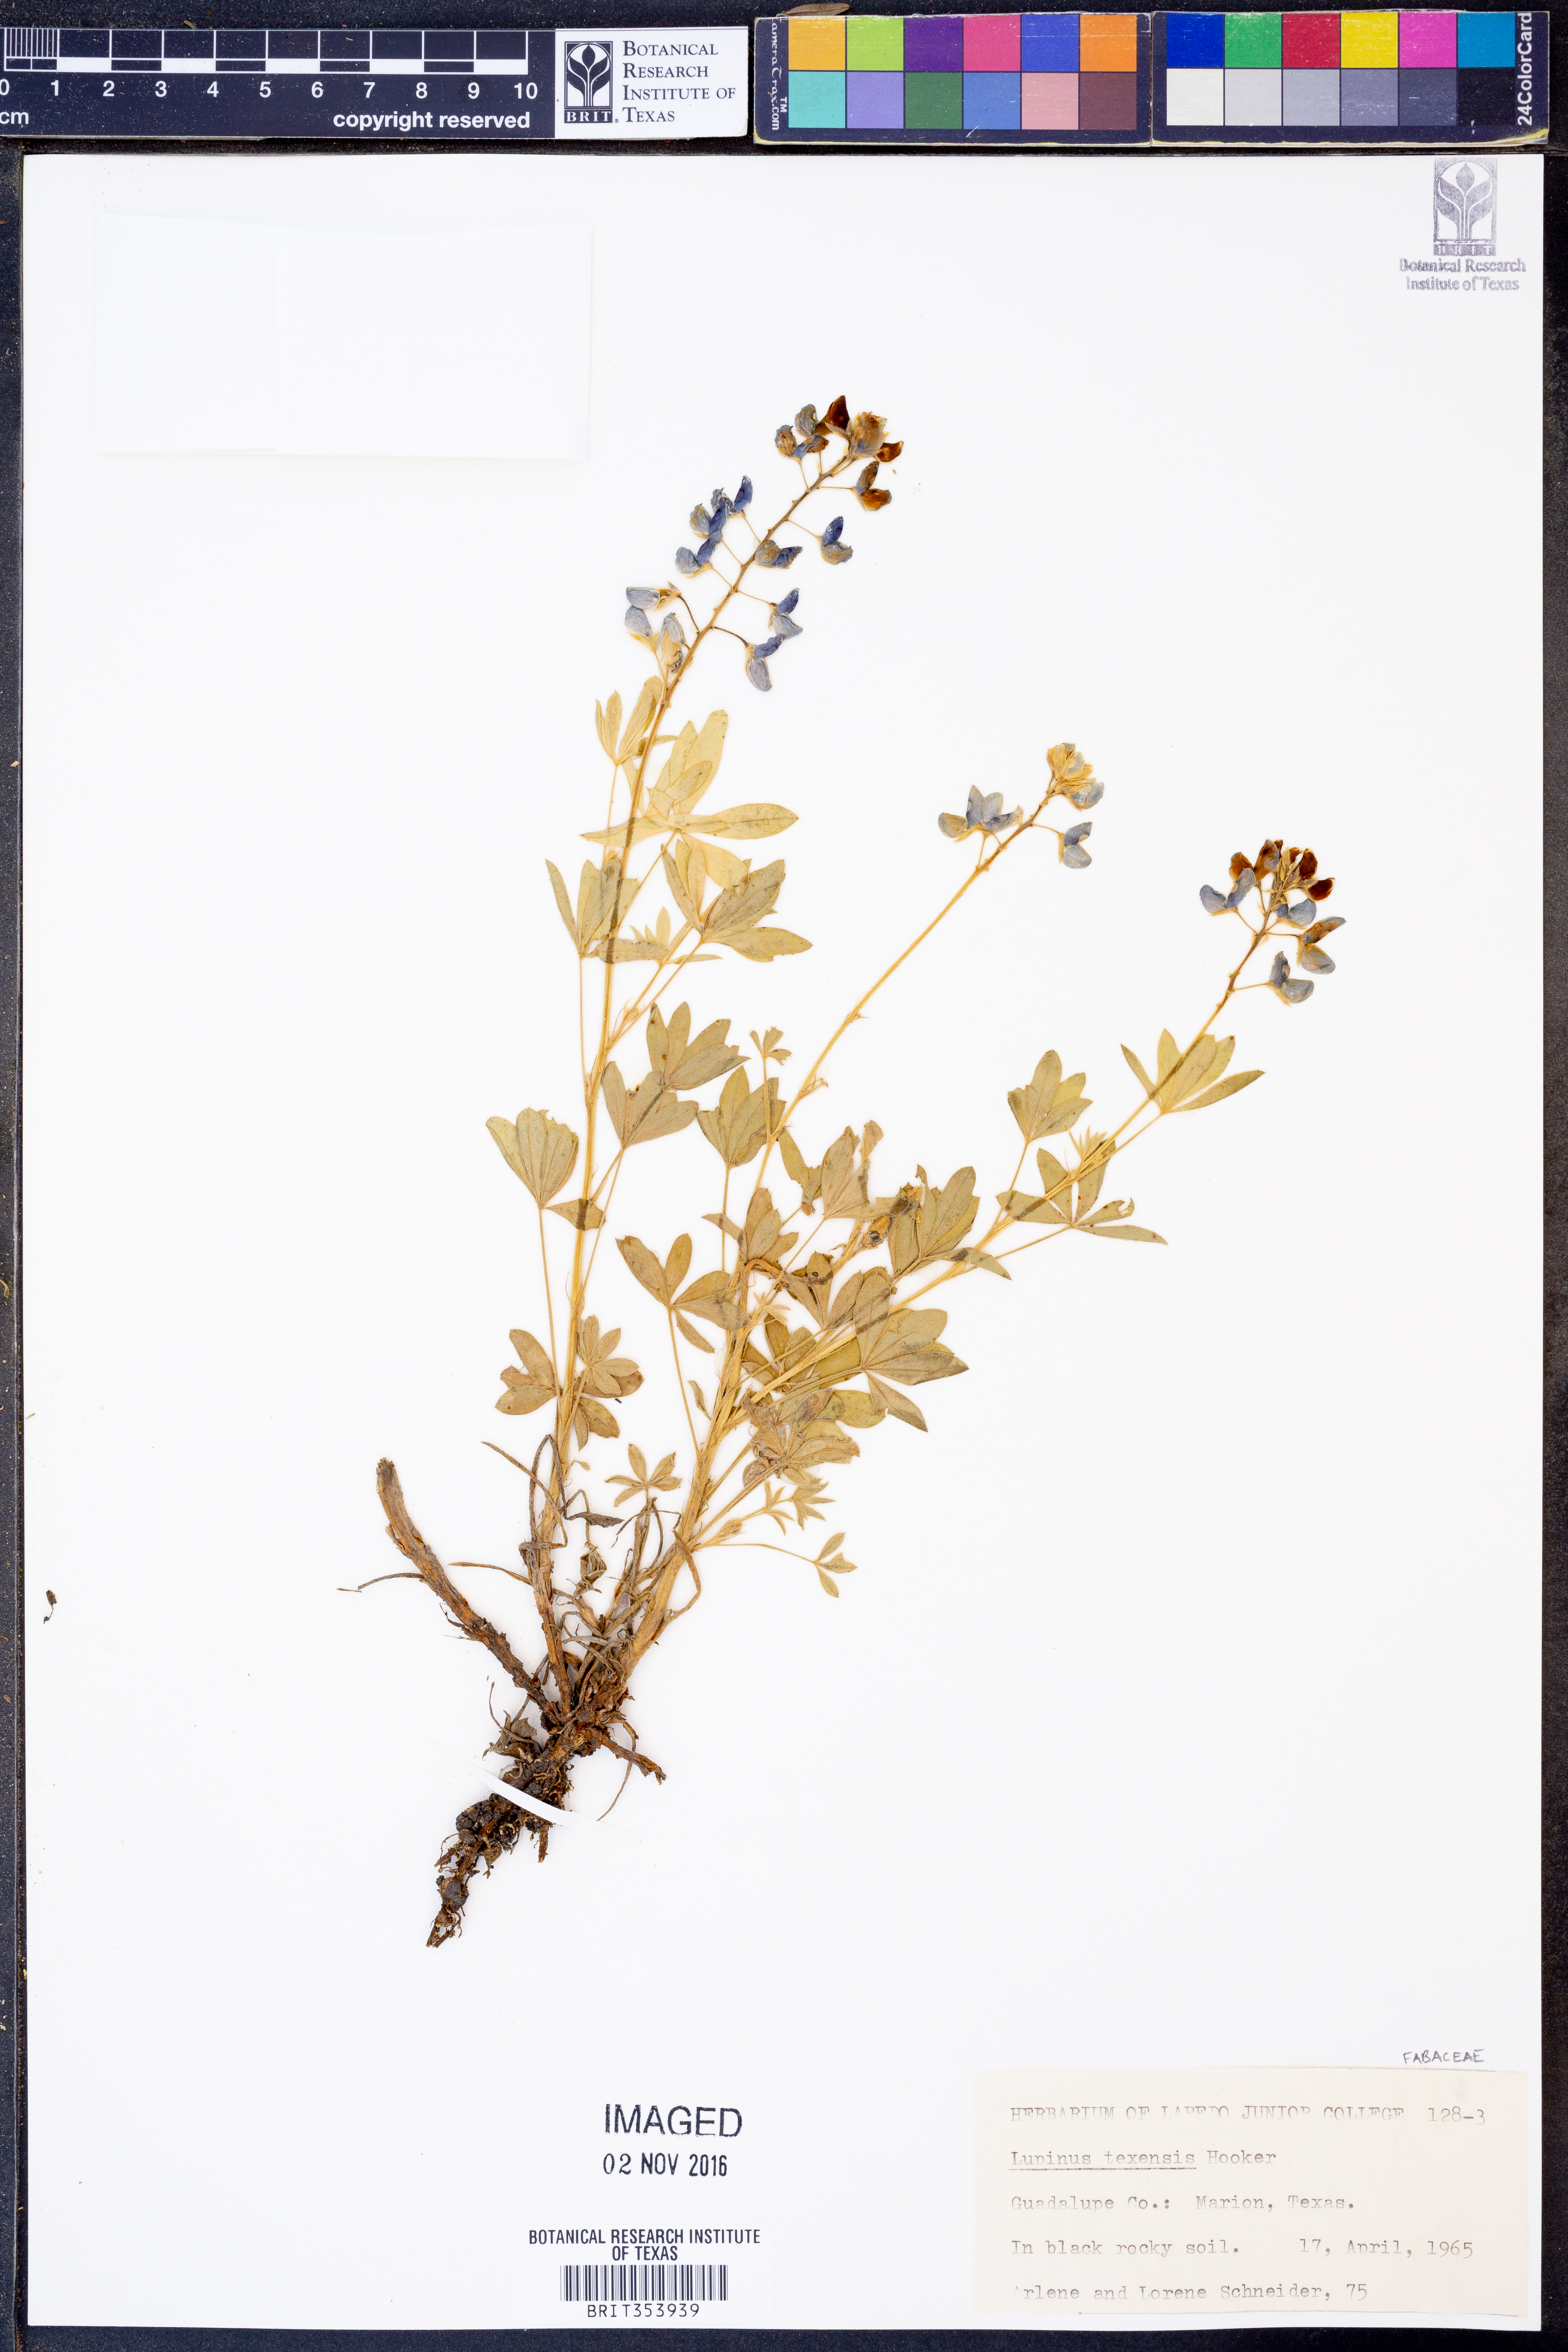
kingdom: Plantae
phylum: Tracheophyta
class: Magnoliopsida
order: Fabales
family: Fabaceae
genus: Lupinus
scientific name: Lupinus texensis
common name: Texas bluebonnet
